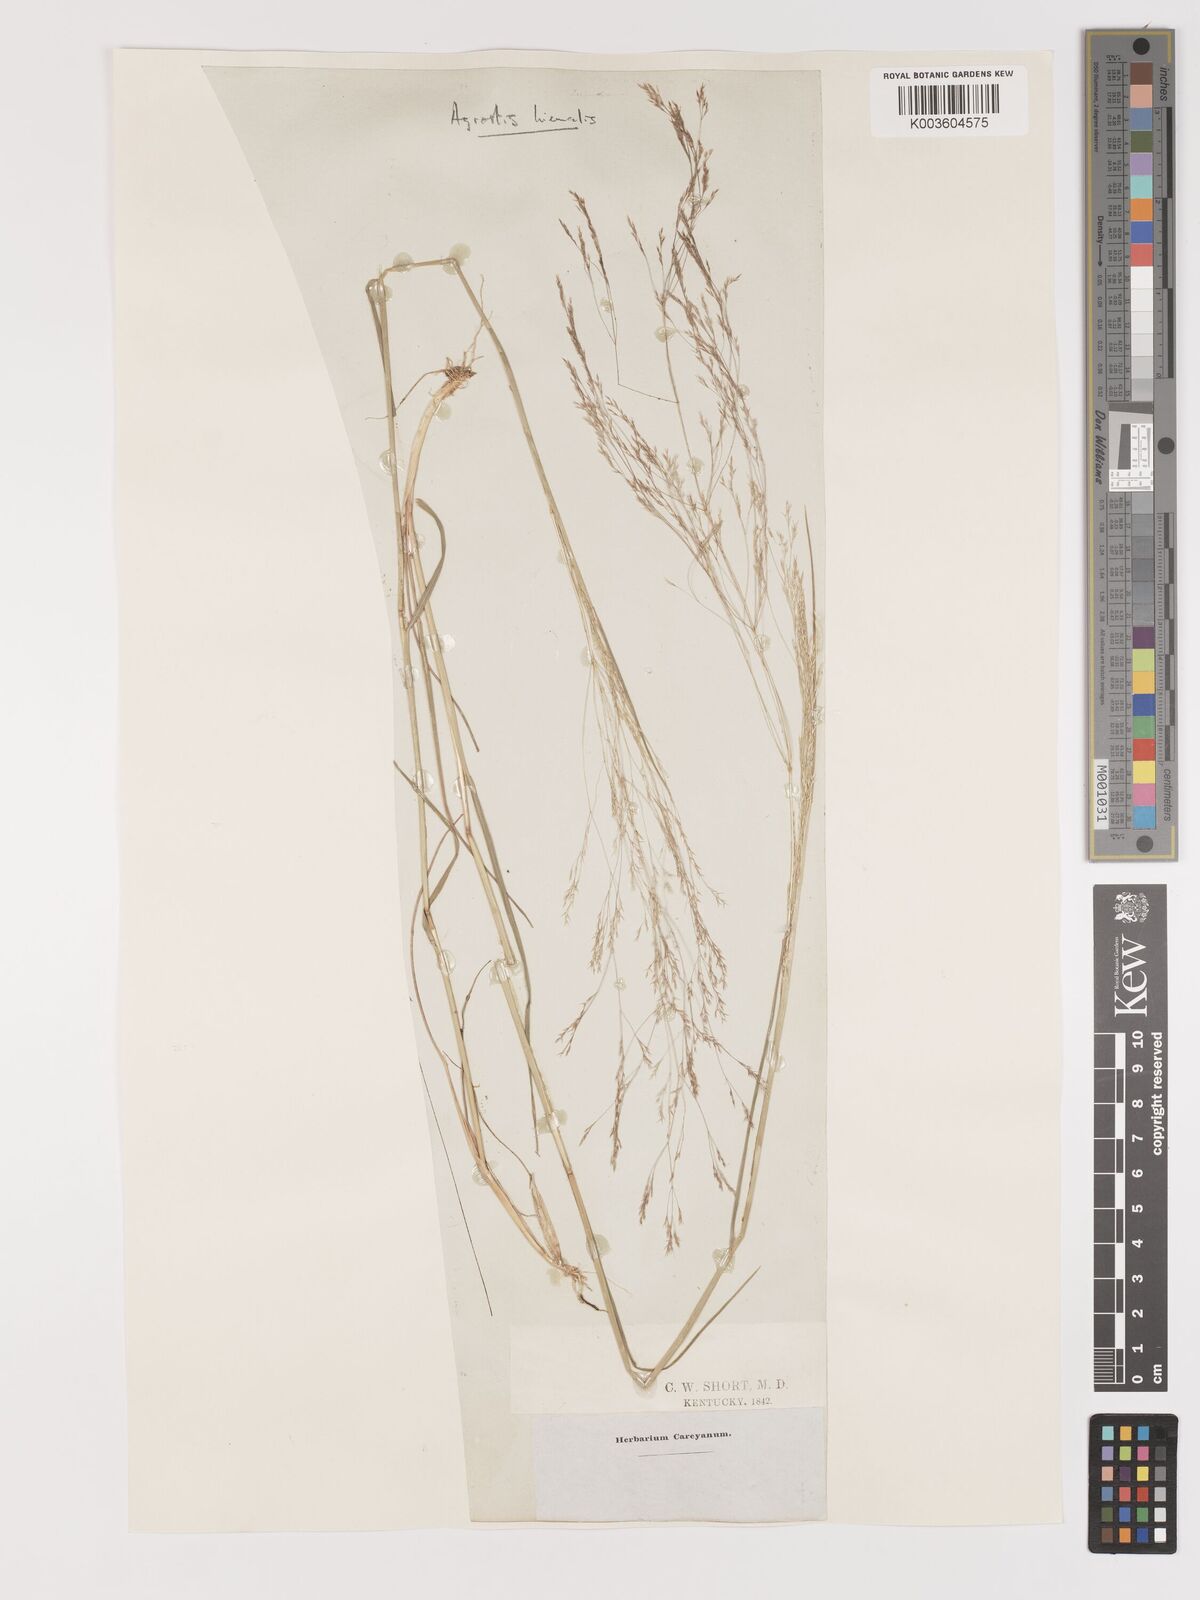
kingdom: Plantae
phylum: Tracheophyta
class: Liliopsida
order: Poales
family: Poaceae
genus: Agrostis
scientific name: Agrostis hyemalis
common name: Small bent
